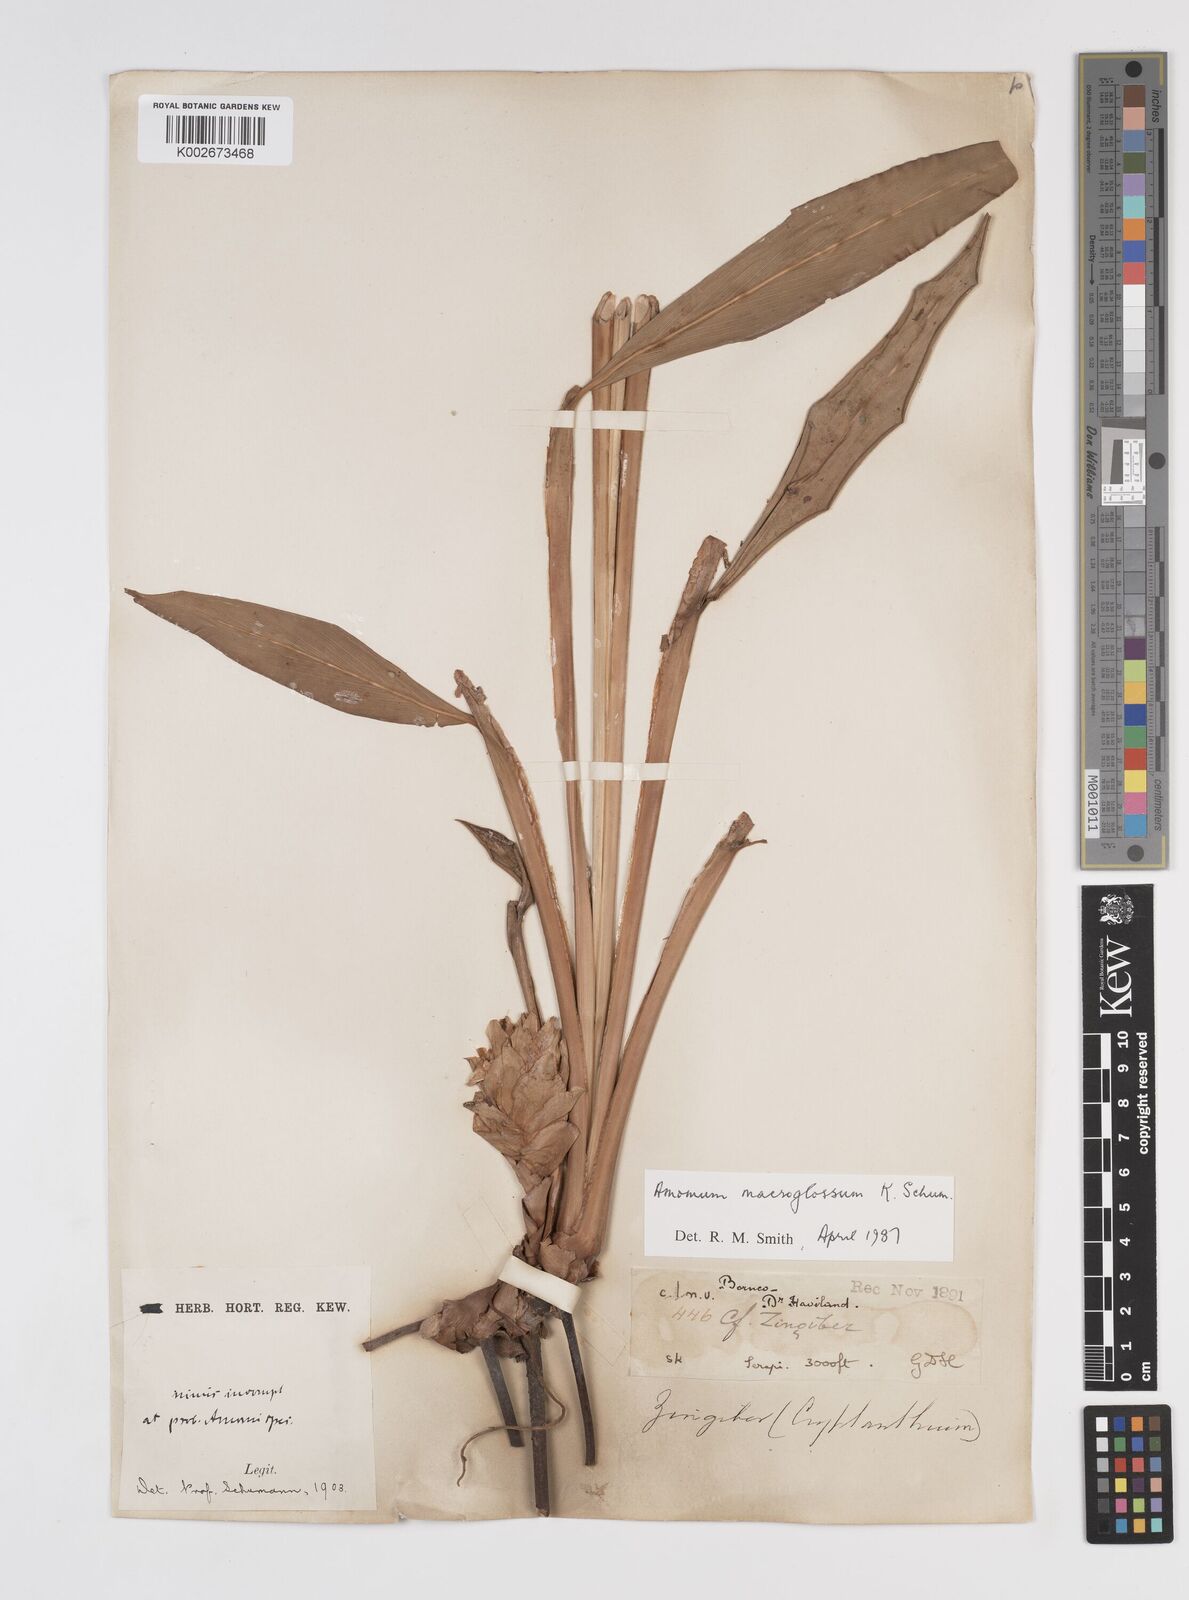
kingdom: Plantae
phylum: Tracheophyta
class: Liliopsida
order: Zingiberales
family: Zingiberaceae
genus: Aframomum
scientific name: Aframomum citratum
